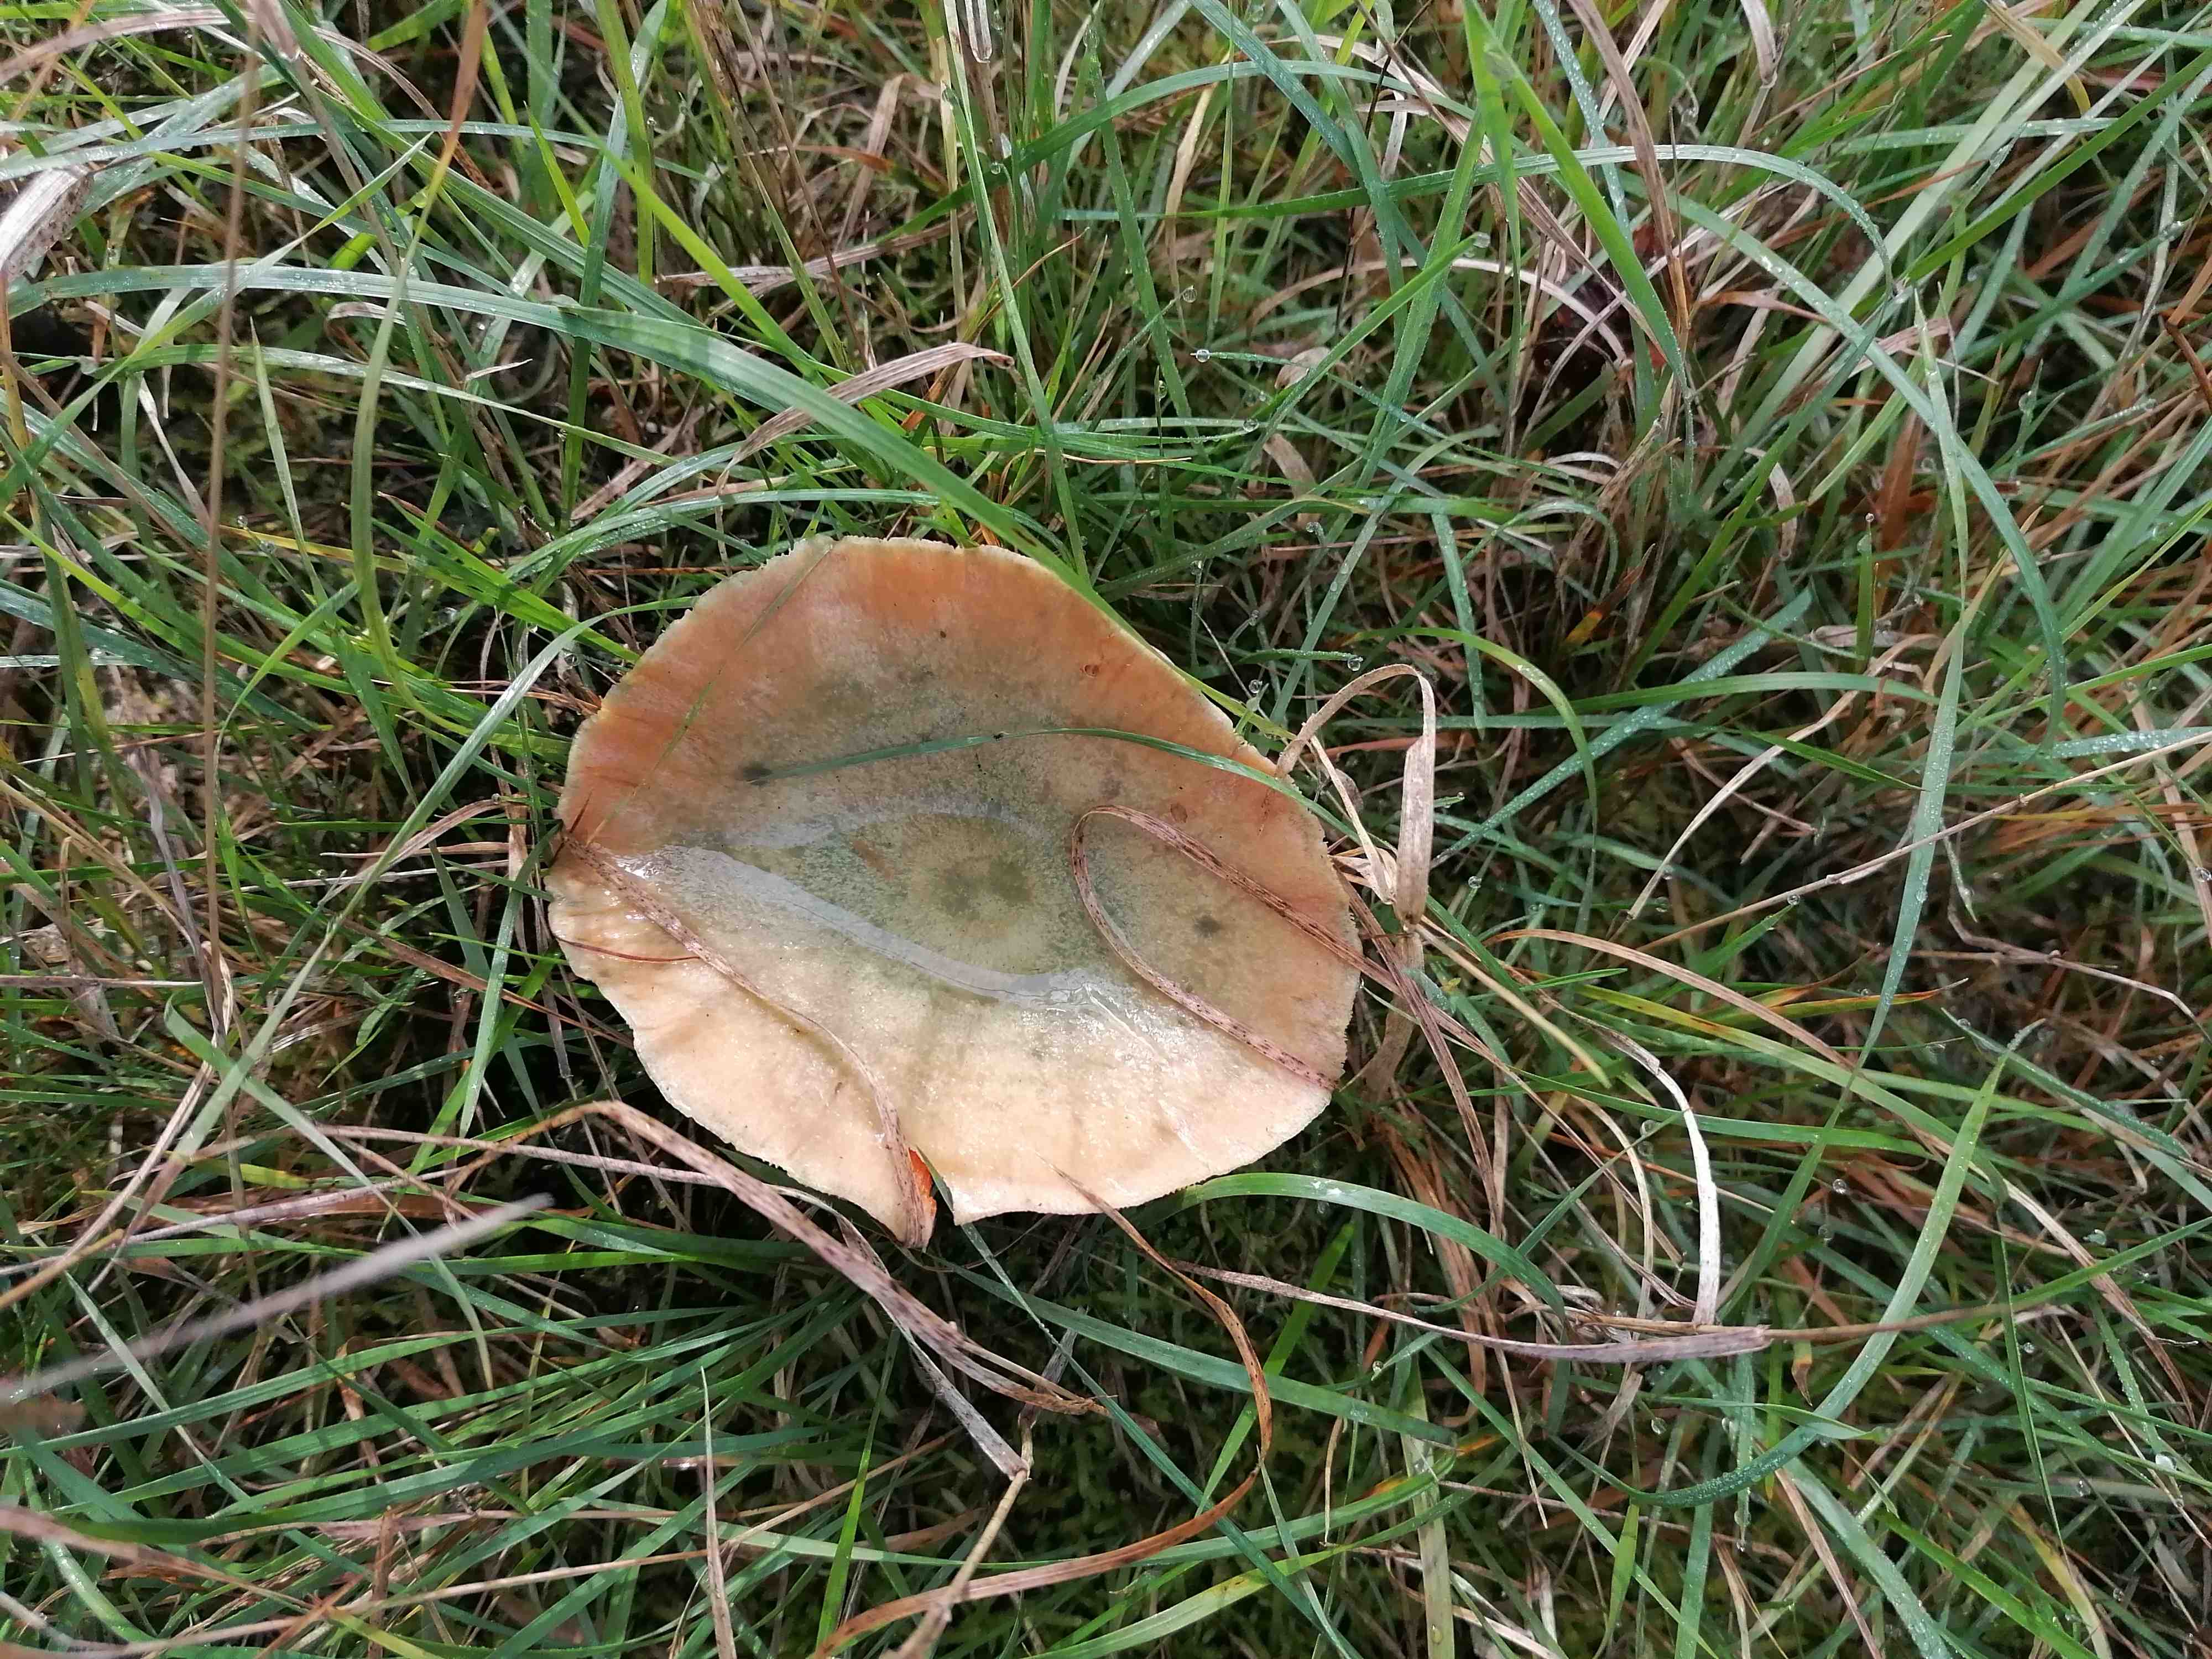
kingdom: Fungi
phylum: Basidiomycota
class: Agaricomycetes
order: Russulales
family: Russulaceae
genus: Lactarius
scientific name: Lactarius deterrimus
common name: gran-mælkehat
